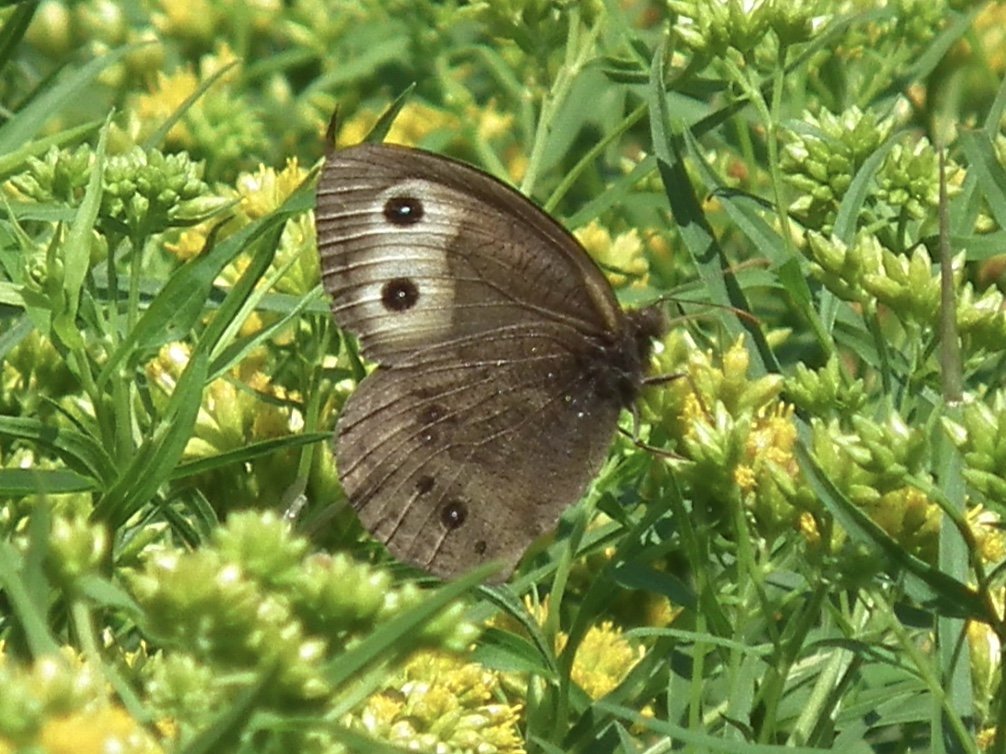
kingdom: Animalia
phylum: Arthropoda
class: Insecta
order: Lepidoptera
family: Nymphalidae
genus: Cercyonis
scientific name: Cercyonis pegala
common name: Common Wood-Nymph
